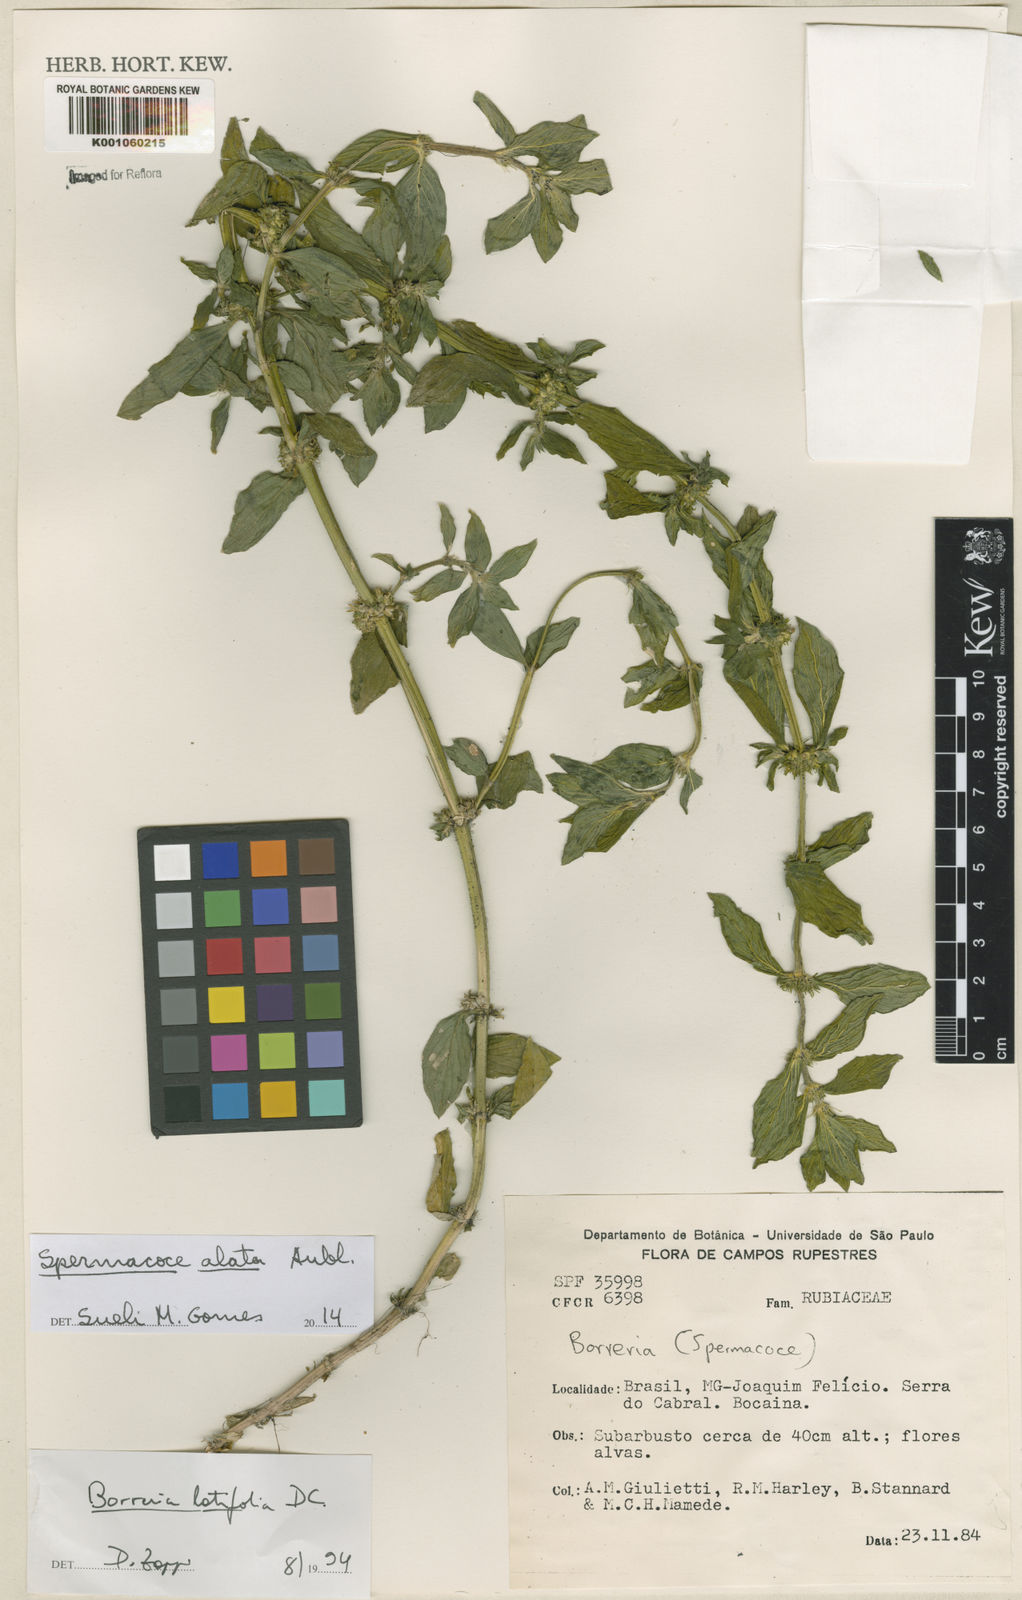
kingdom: Plantae
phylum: Tracheophyta
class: Magnoliopsida
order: Gentianales
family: Rubiaceae
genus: Spermacoce
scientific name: Spermacoce
